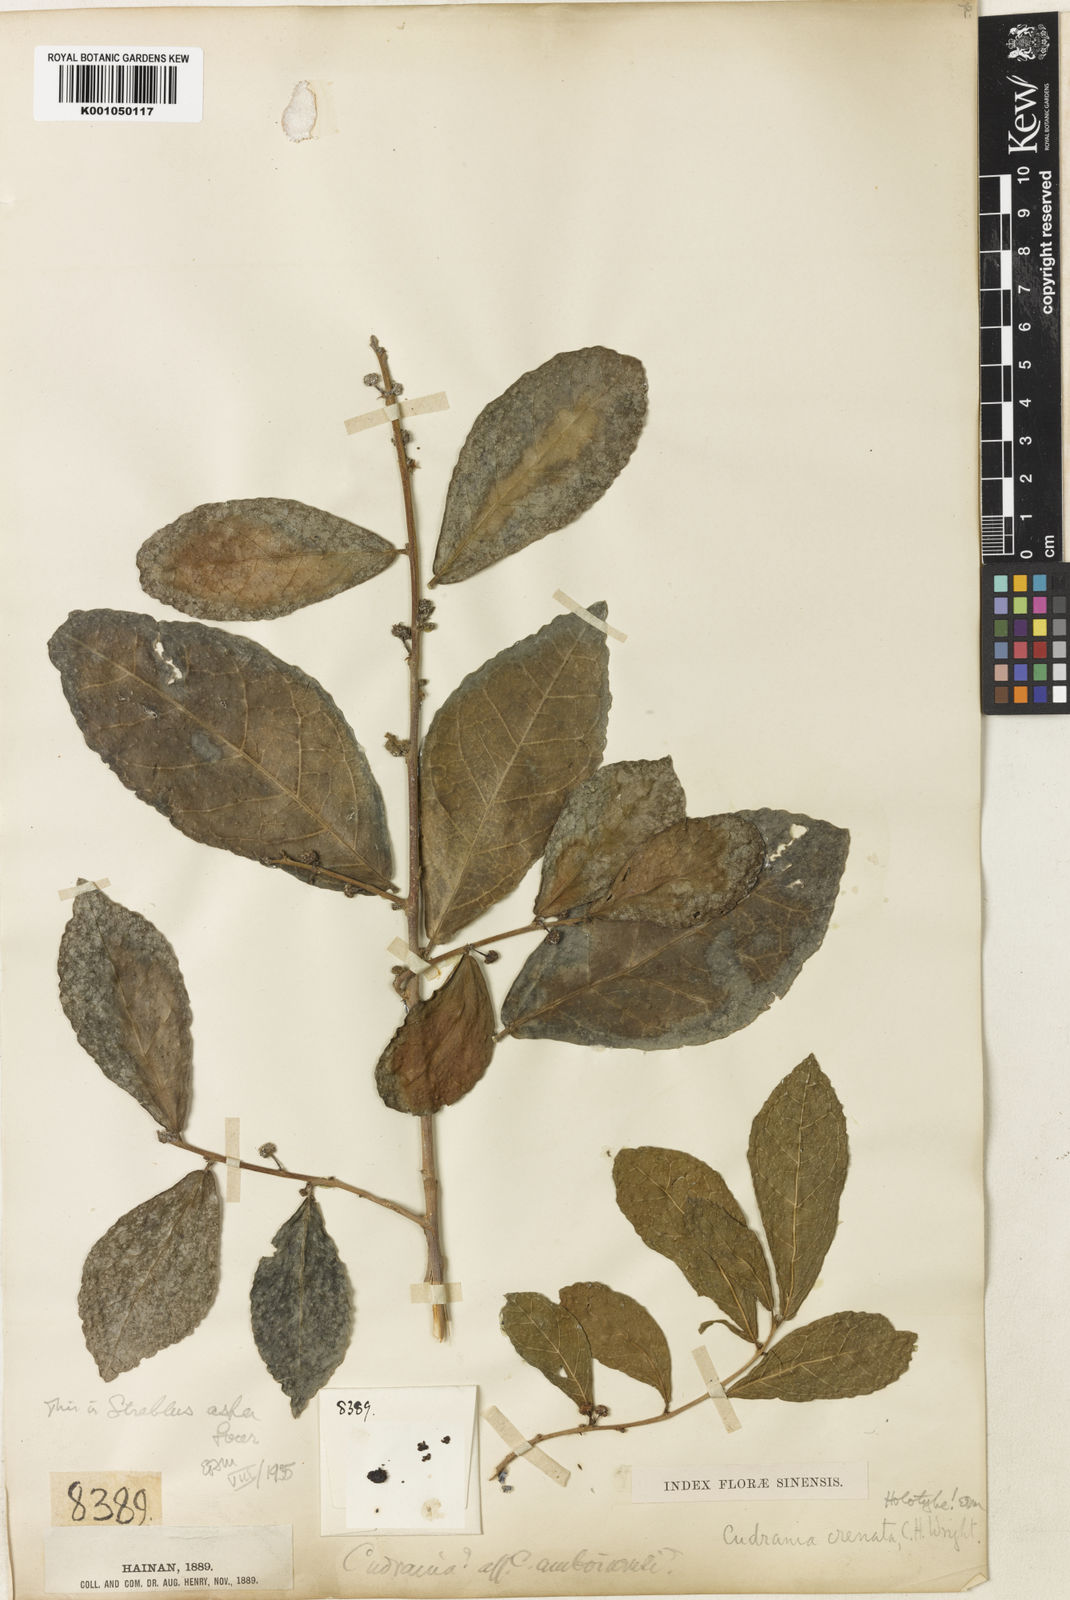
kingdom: Plantae
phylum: Tracheophyta
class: Magnoliopsida
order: Rosales
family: Moraceae
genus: Streblus
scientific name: Streblus asper
